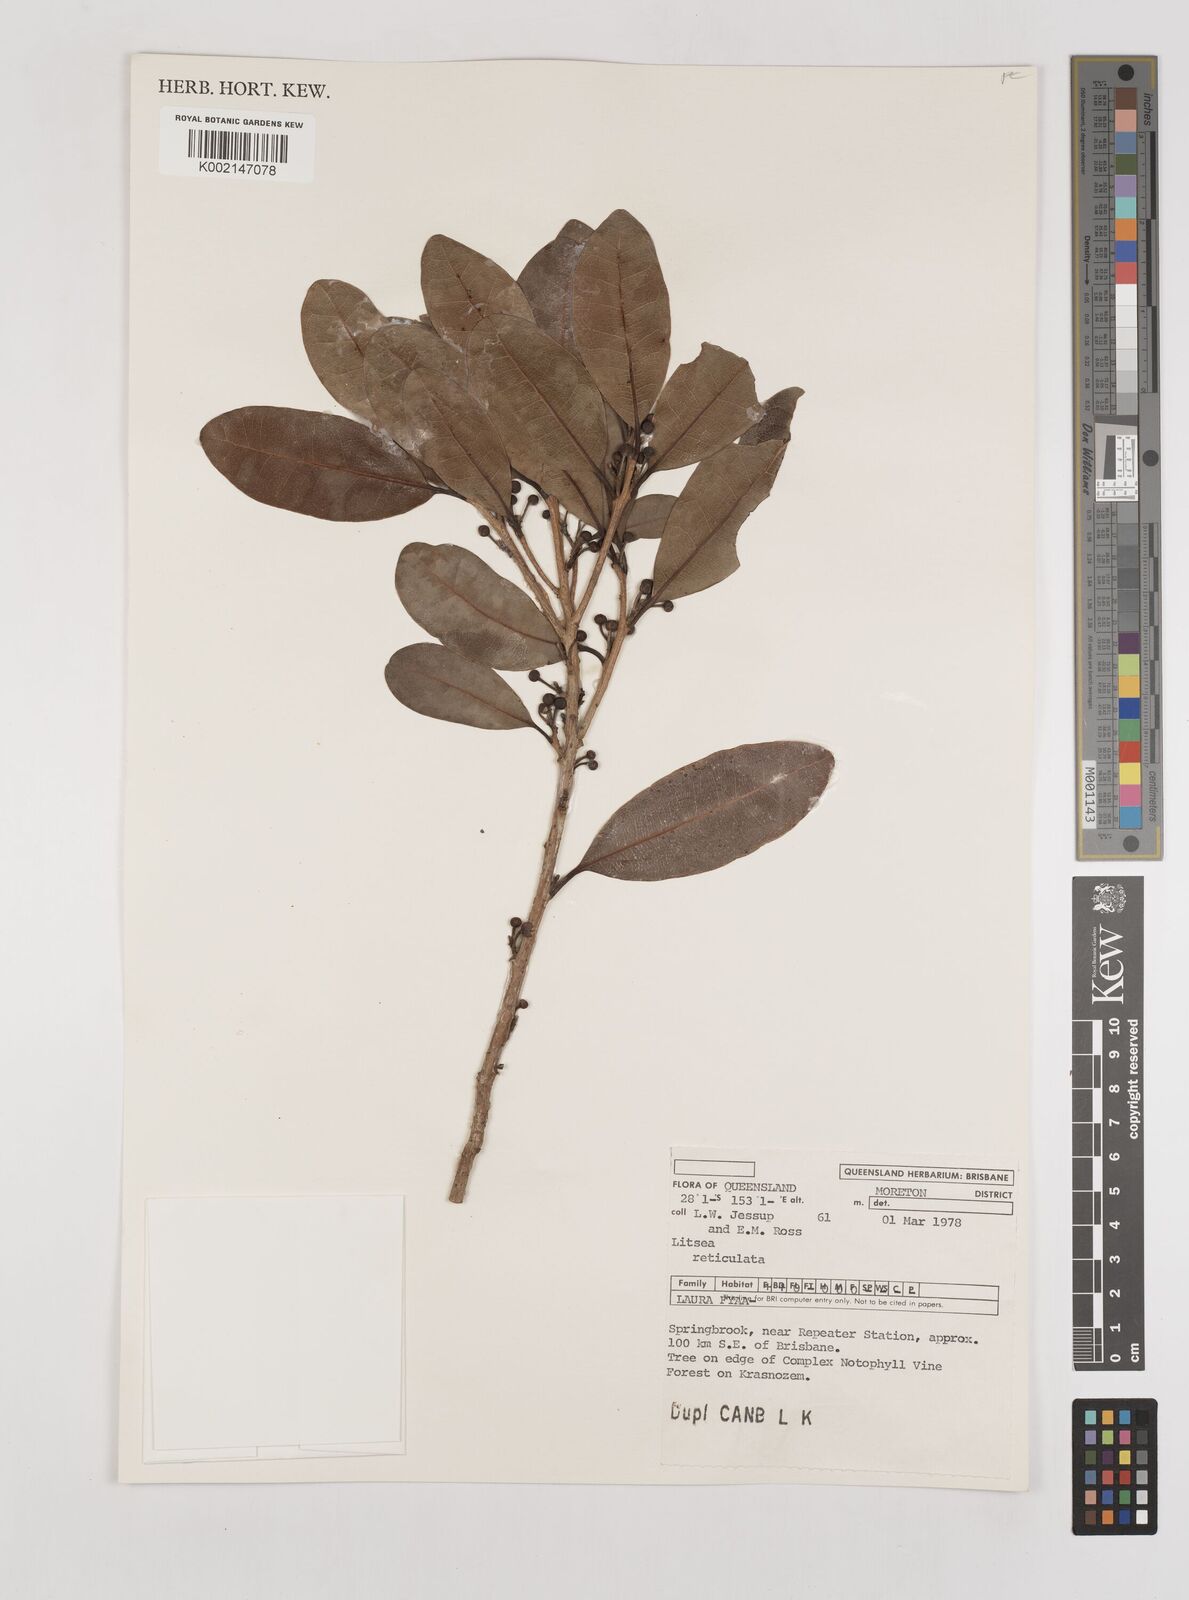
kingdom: Plantae
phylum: Tracheophyta
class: Magnoliopsida
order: Laurales
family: Lauraceae
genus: Litsea
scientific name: Litsea reticulata
